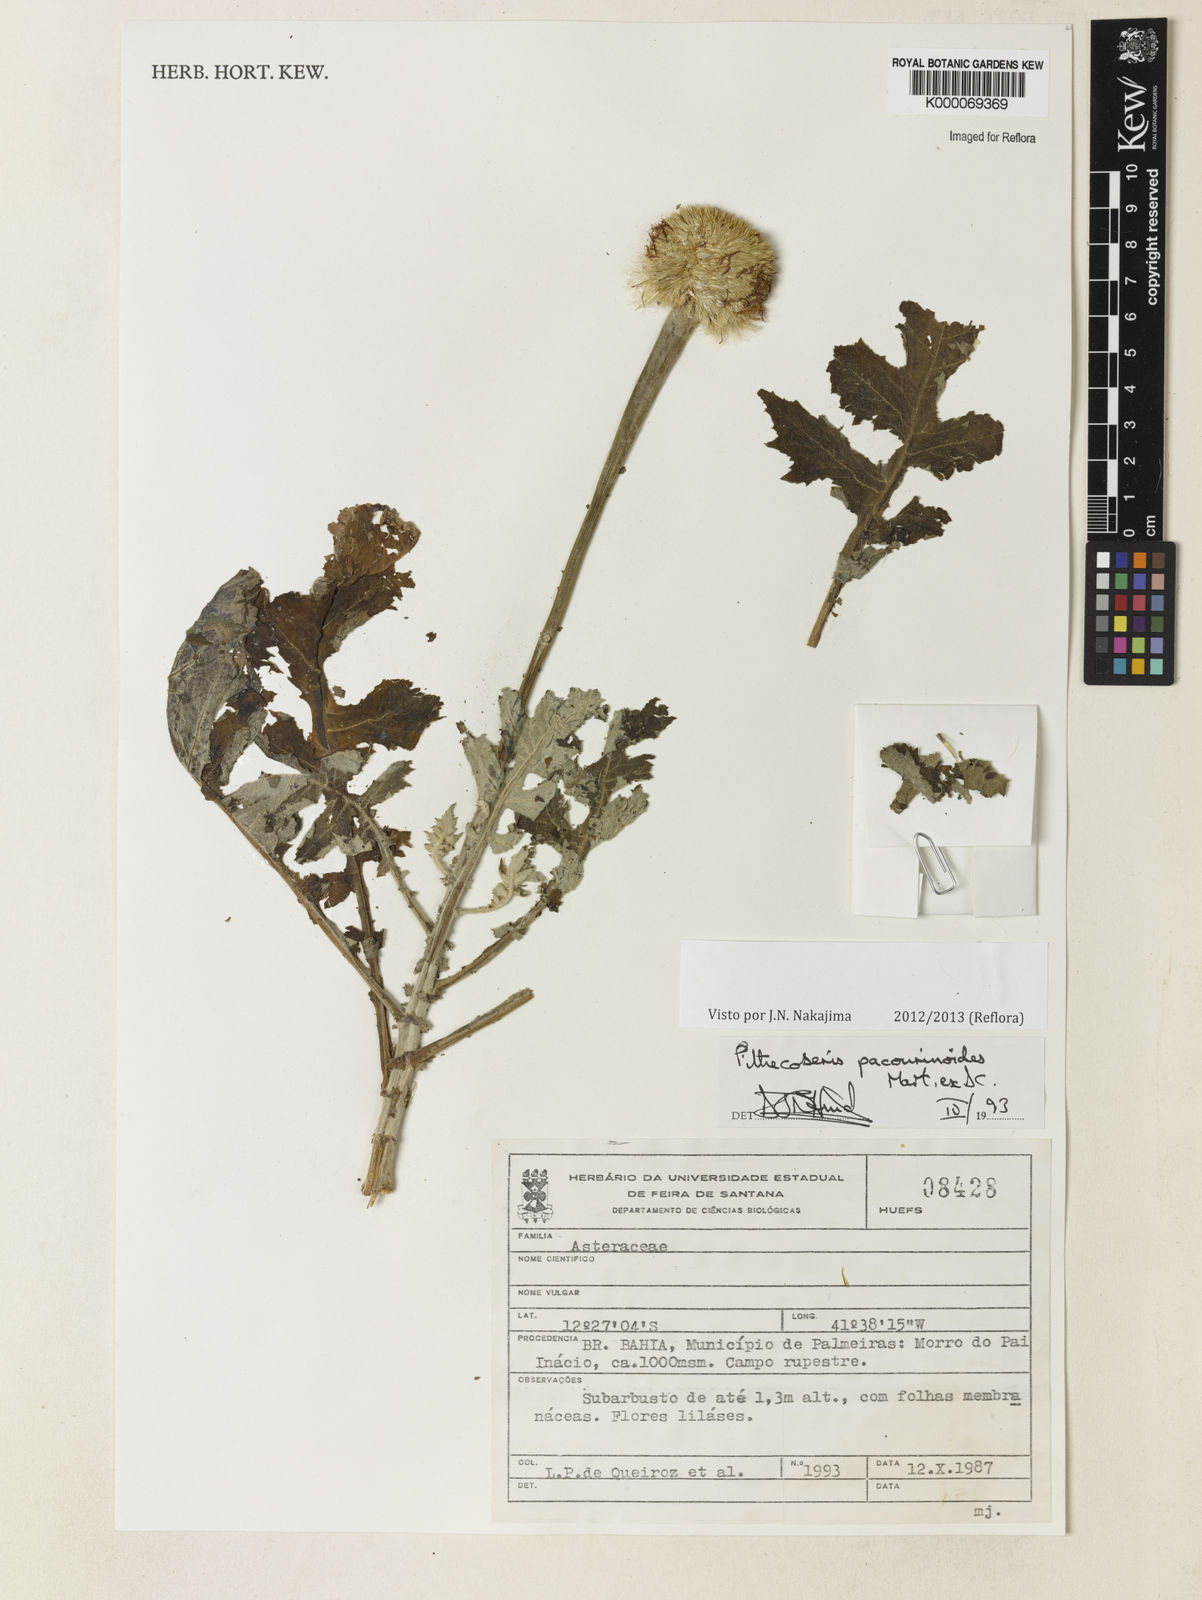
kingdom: Plantae
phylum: Tracheophyta
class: Magnoliopsida
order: Asterales
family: Asteraceae
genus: Chresta
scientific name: Chresta pacourinoides
